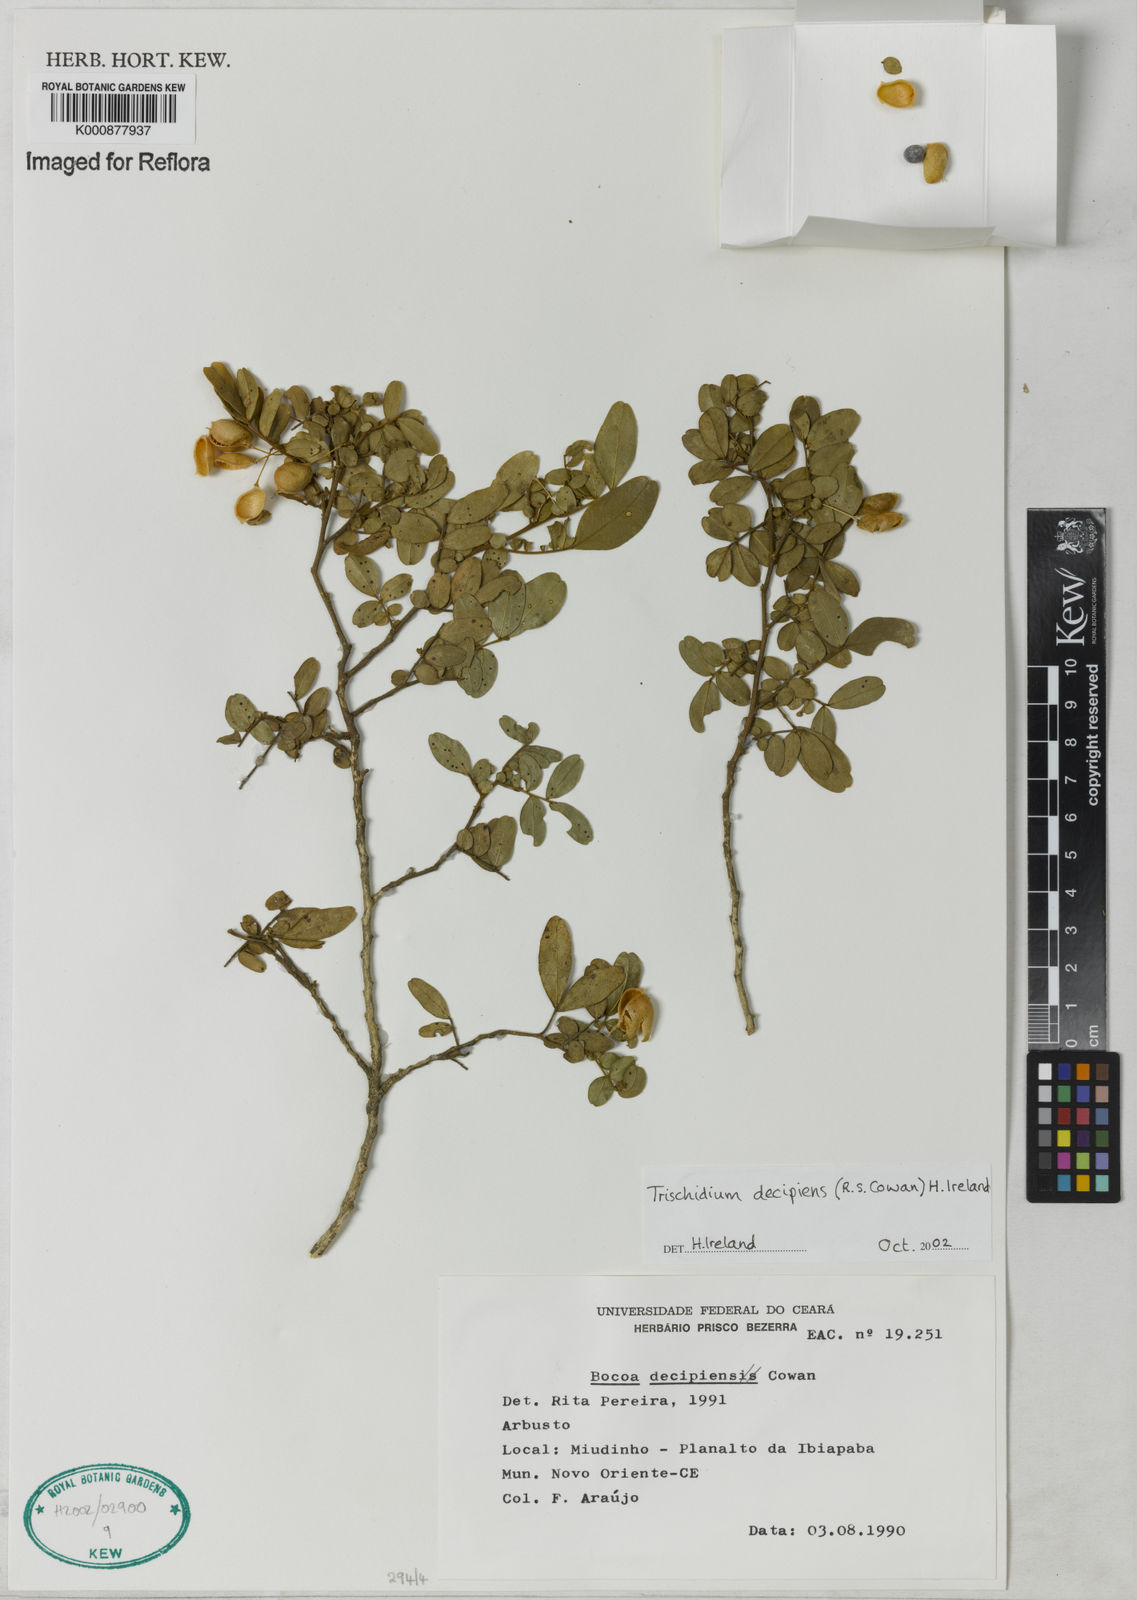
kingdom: Plantae
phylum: Tracheophyta
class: Magnoliopsida
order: Fabales
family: Fabaceae
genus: Trischidium
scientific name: Trischidium decipiens
